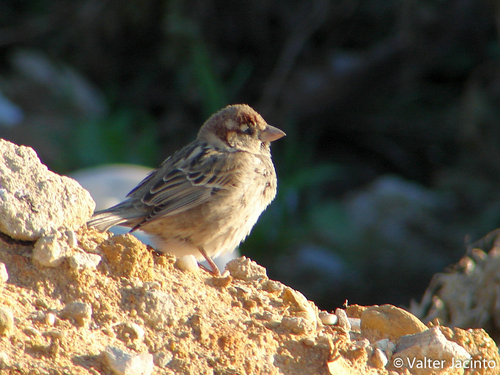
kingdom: Animalia
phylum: Chordata
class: Aves
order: Passeriformes
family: Passeridae
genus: Passer
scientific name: Passer domesticus
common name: House sparrow
